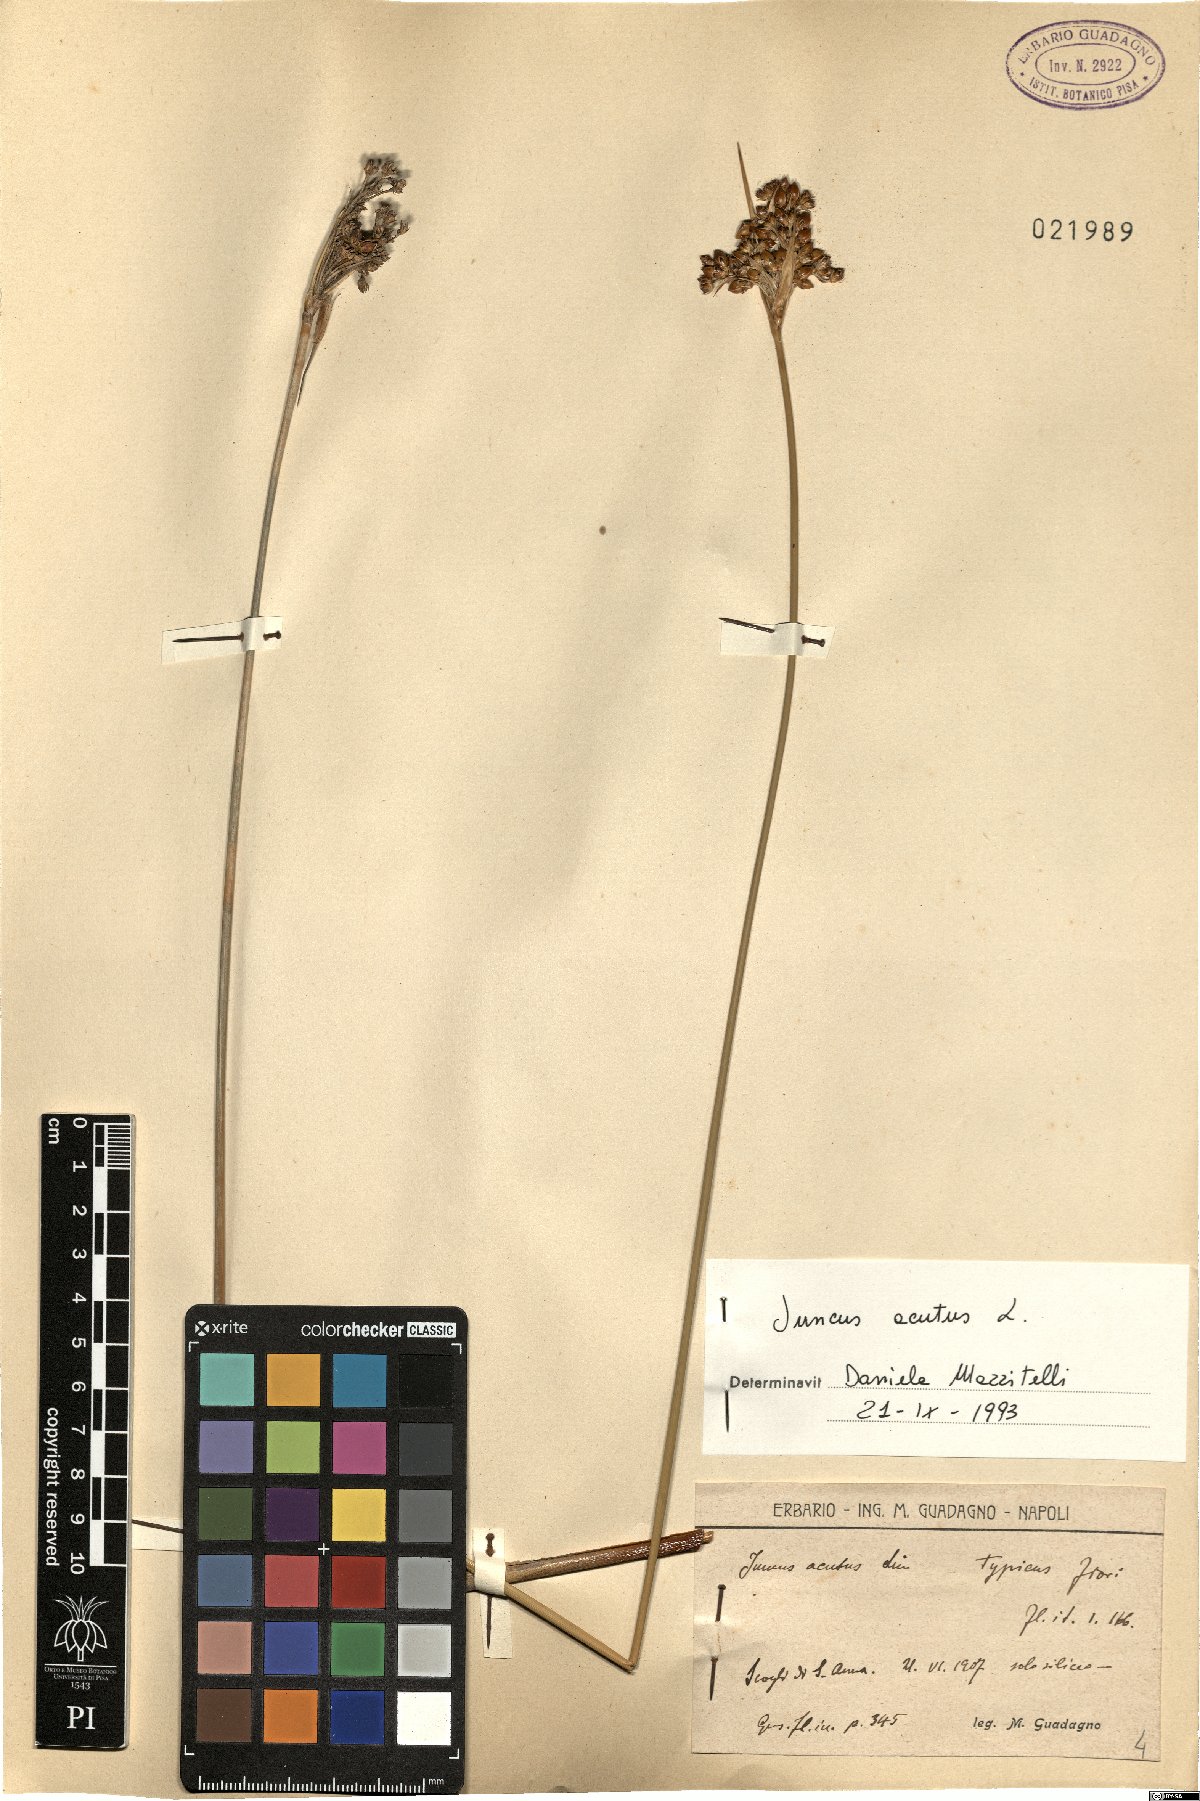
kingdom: Plantae
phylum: Tracheophyta
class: Liliopsida
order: Poales
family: Juncaceae
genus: Juncus
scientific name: Juncus acutus
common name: Sharp rush
